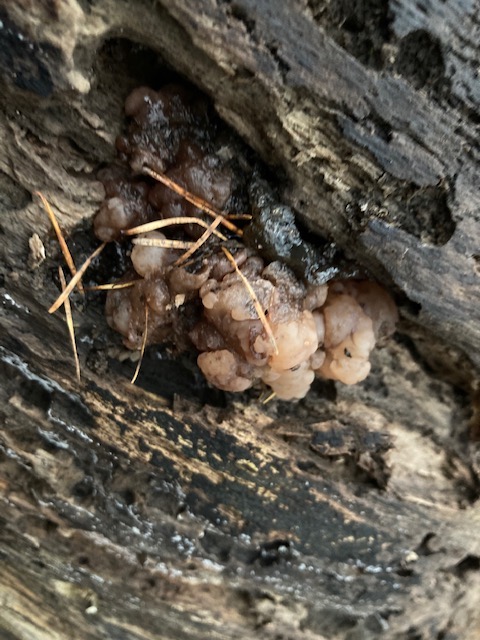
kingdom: Fungi
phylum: Ascomycota
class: Leotiomycetes
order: Helotiales
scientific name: Helotiales
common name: stilkskiveordenen
